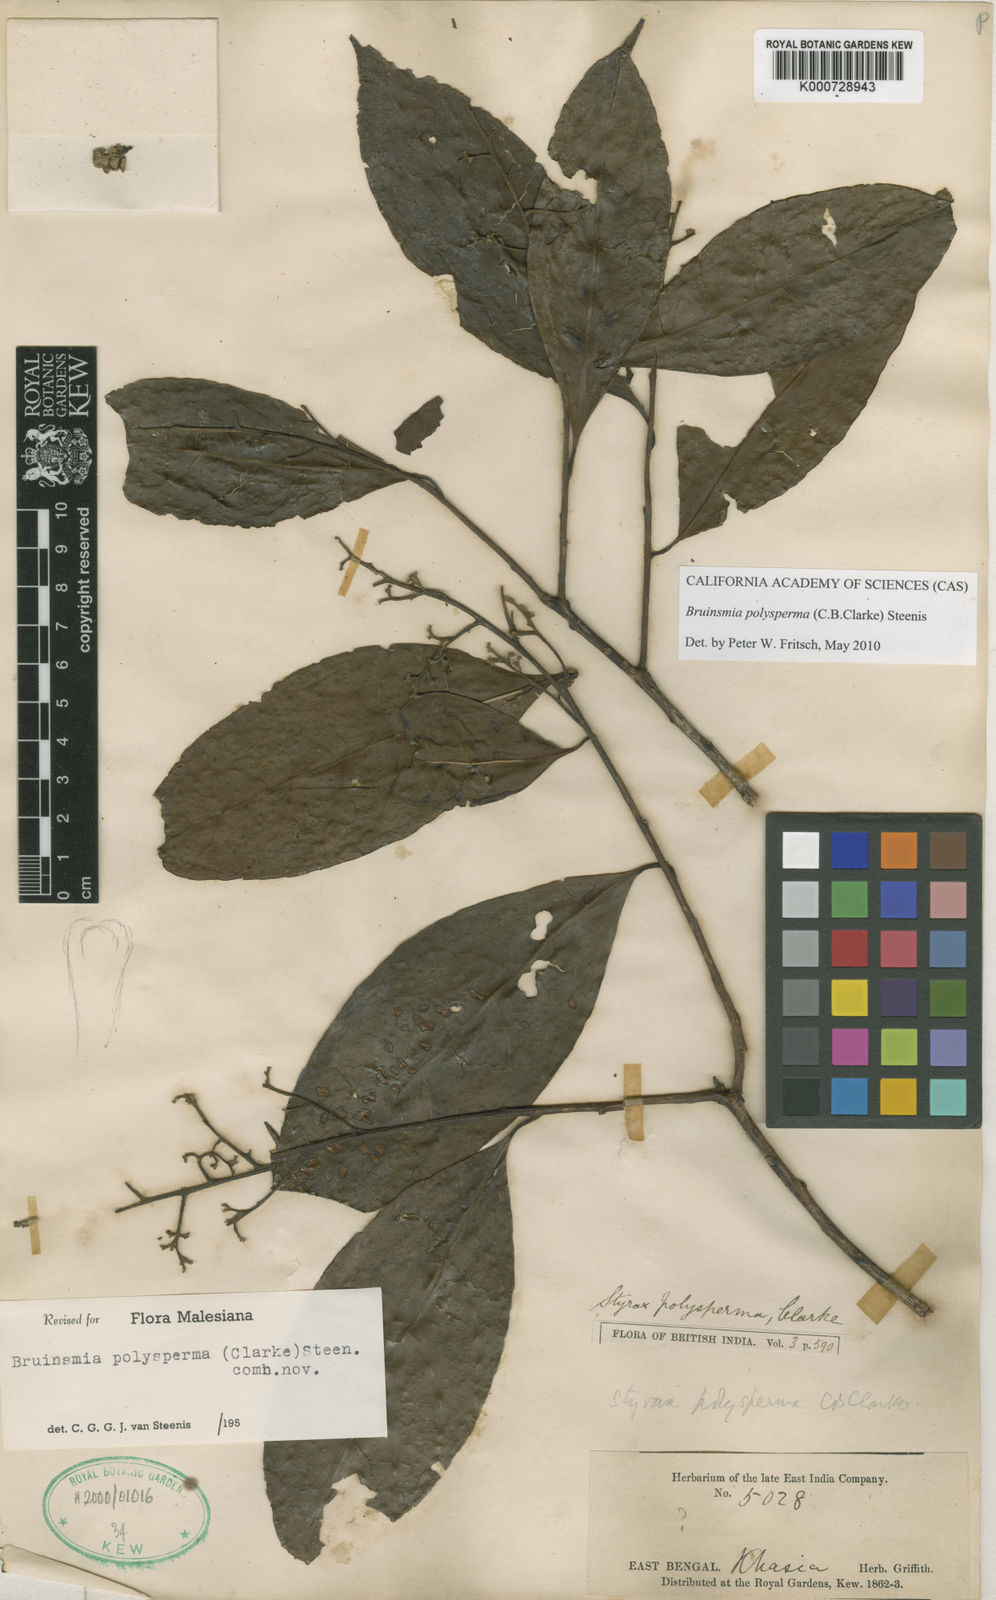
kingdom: Plantae
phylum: Tracheophyta
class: Magnoliopsida
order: Ericales
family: Styracaceae
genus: Bruinsmia
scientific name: Bruinsmia polysperma
